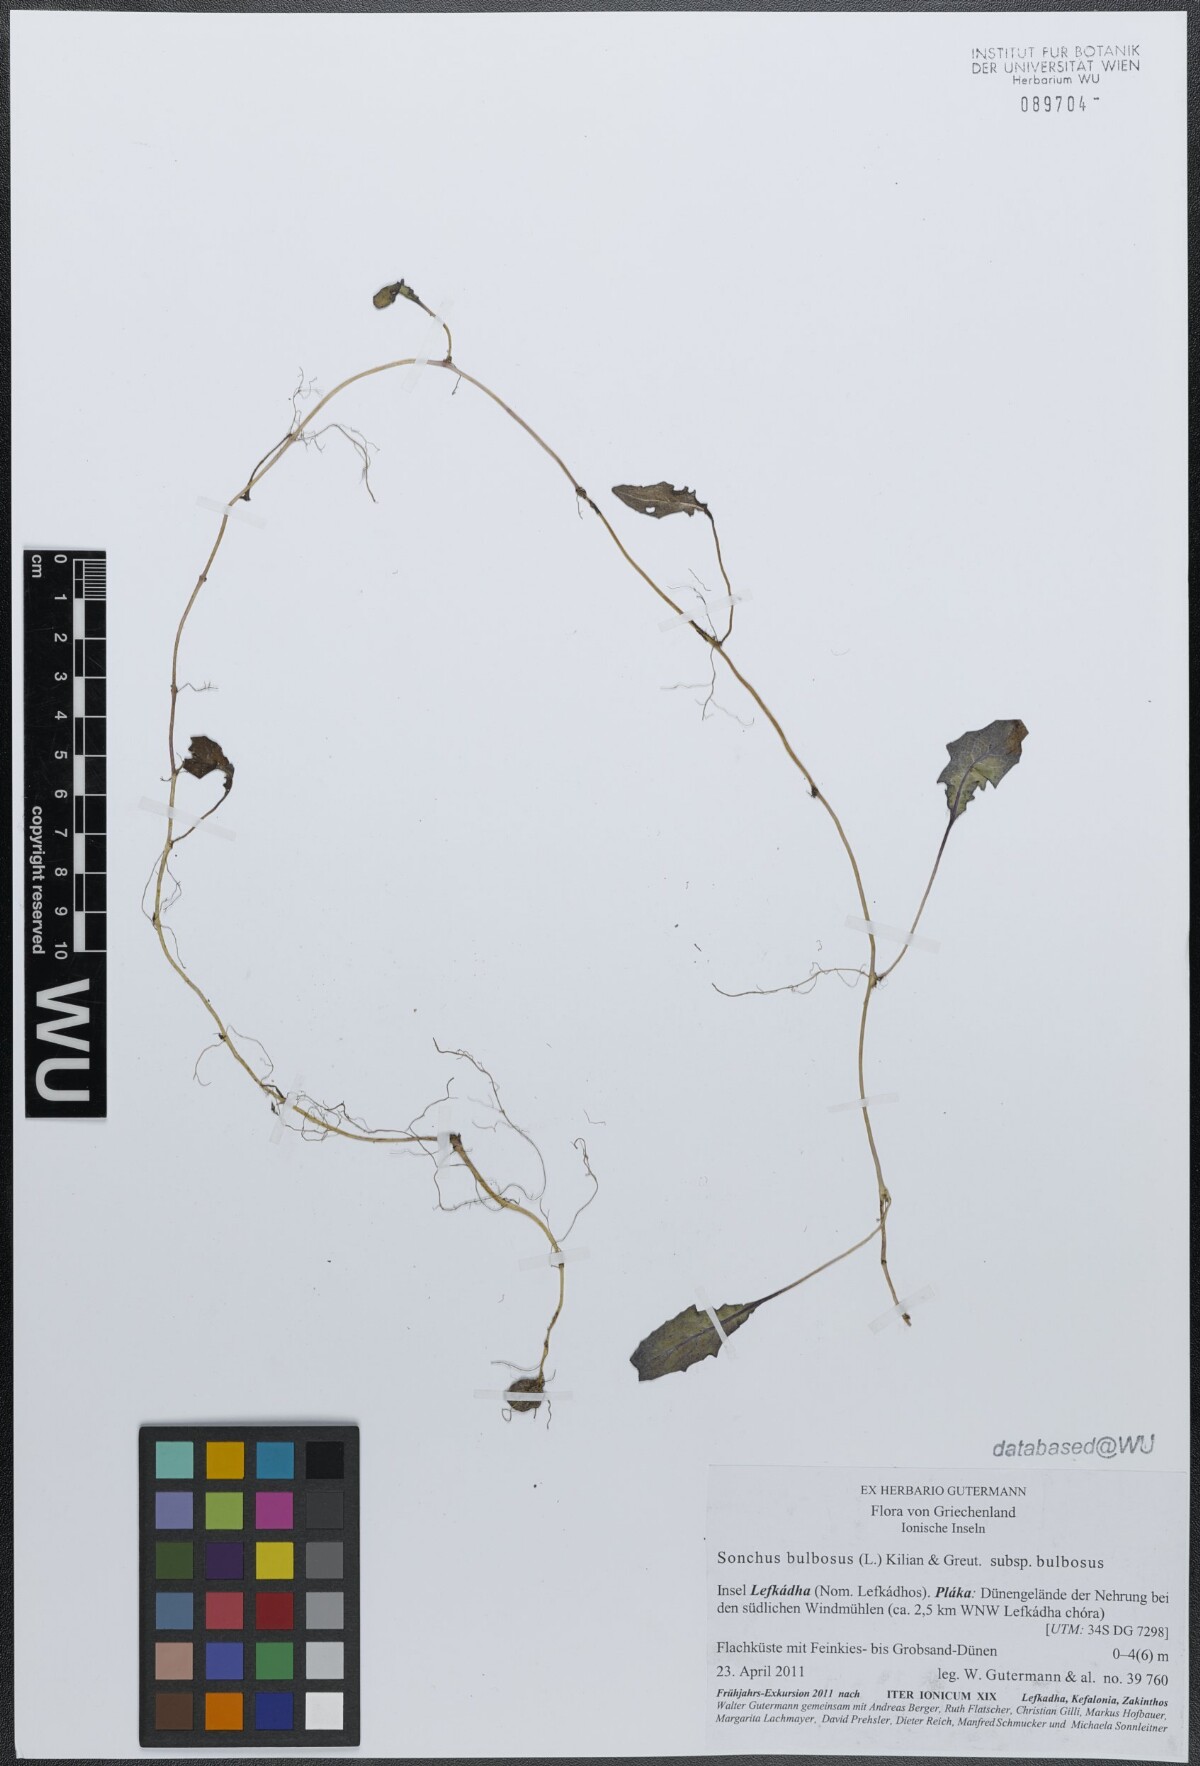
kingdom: Plantae
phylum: Tracheophyta
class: Magnoliopsida
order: Asterales
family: Asteraceae
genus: Aetheorhiza
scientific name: Aetheorhiza bulbosa
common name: Tuberous hawk's-beard
